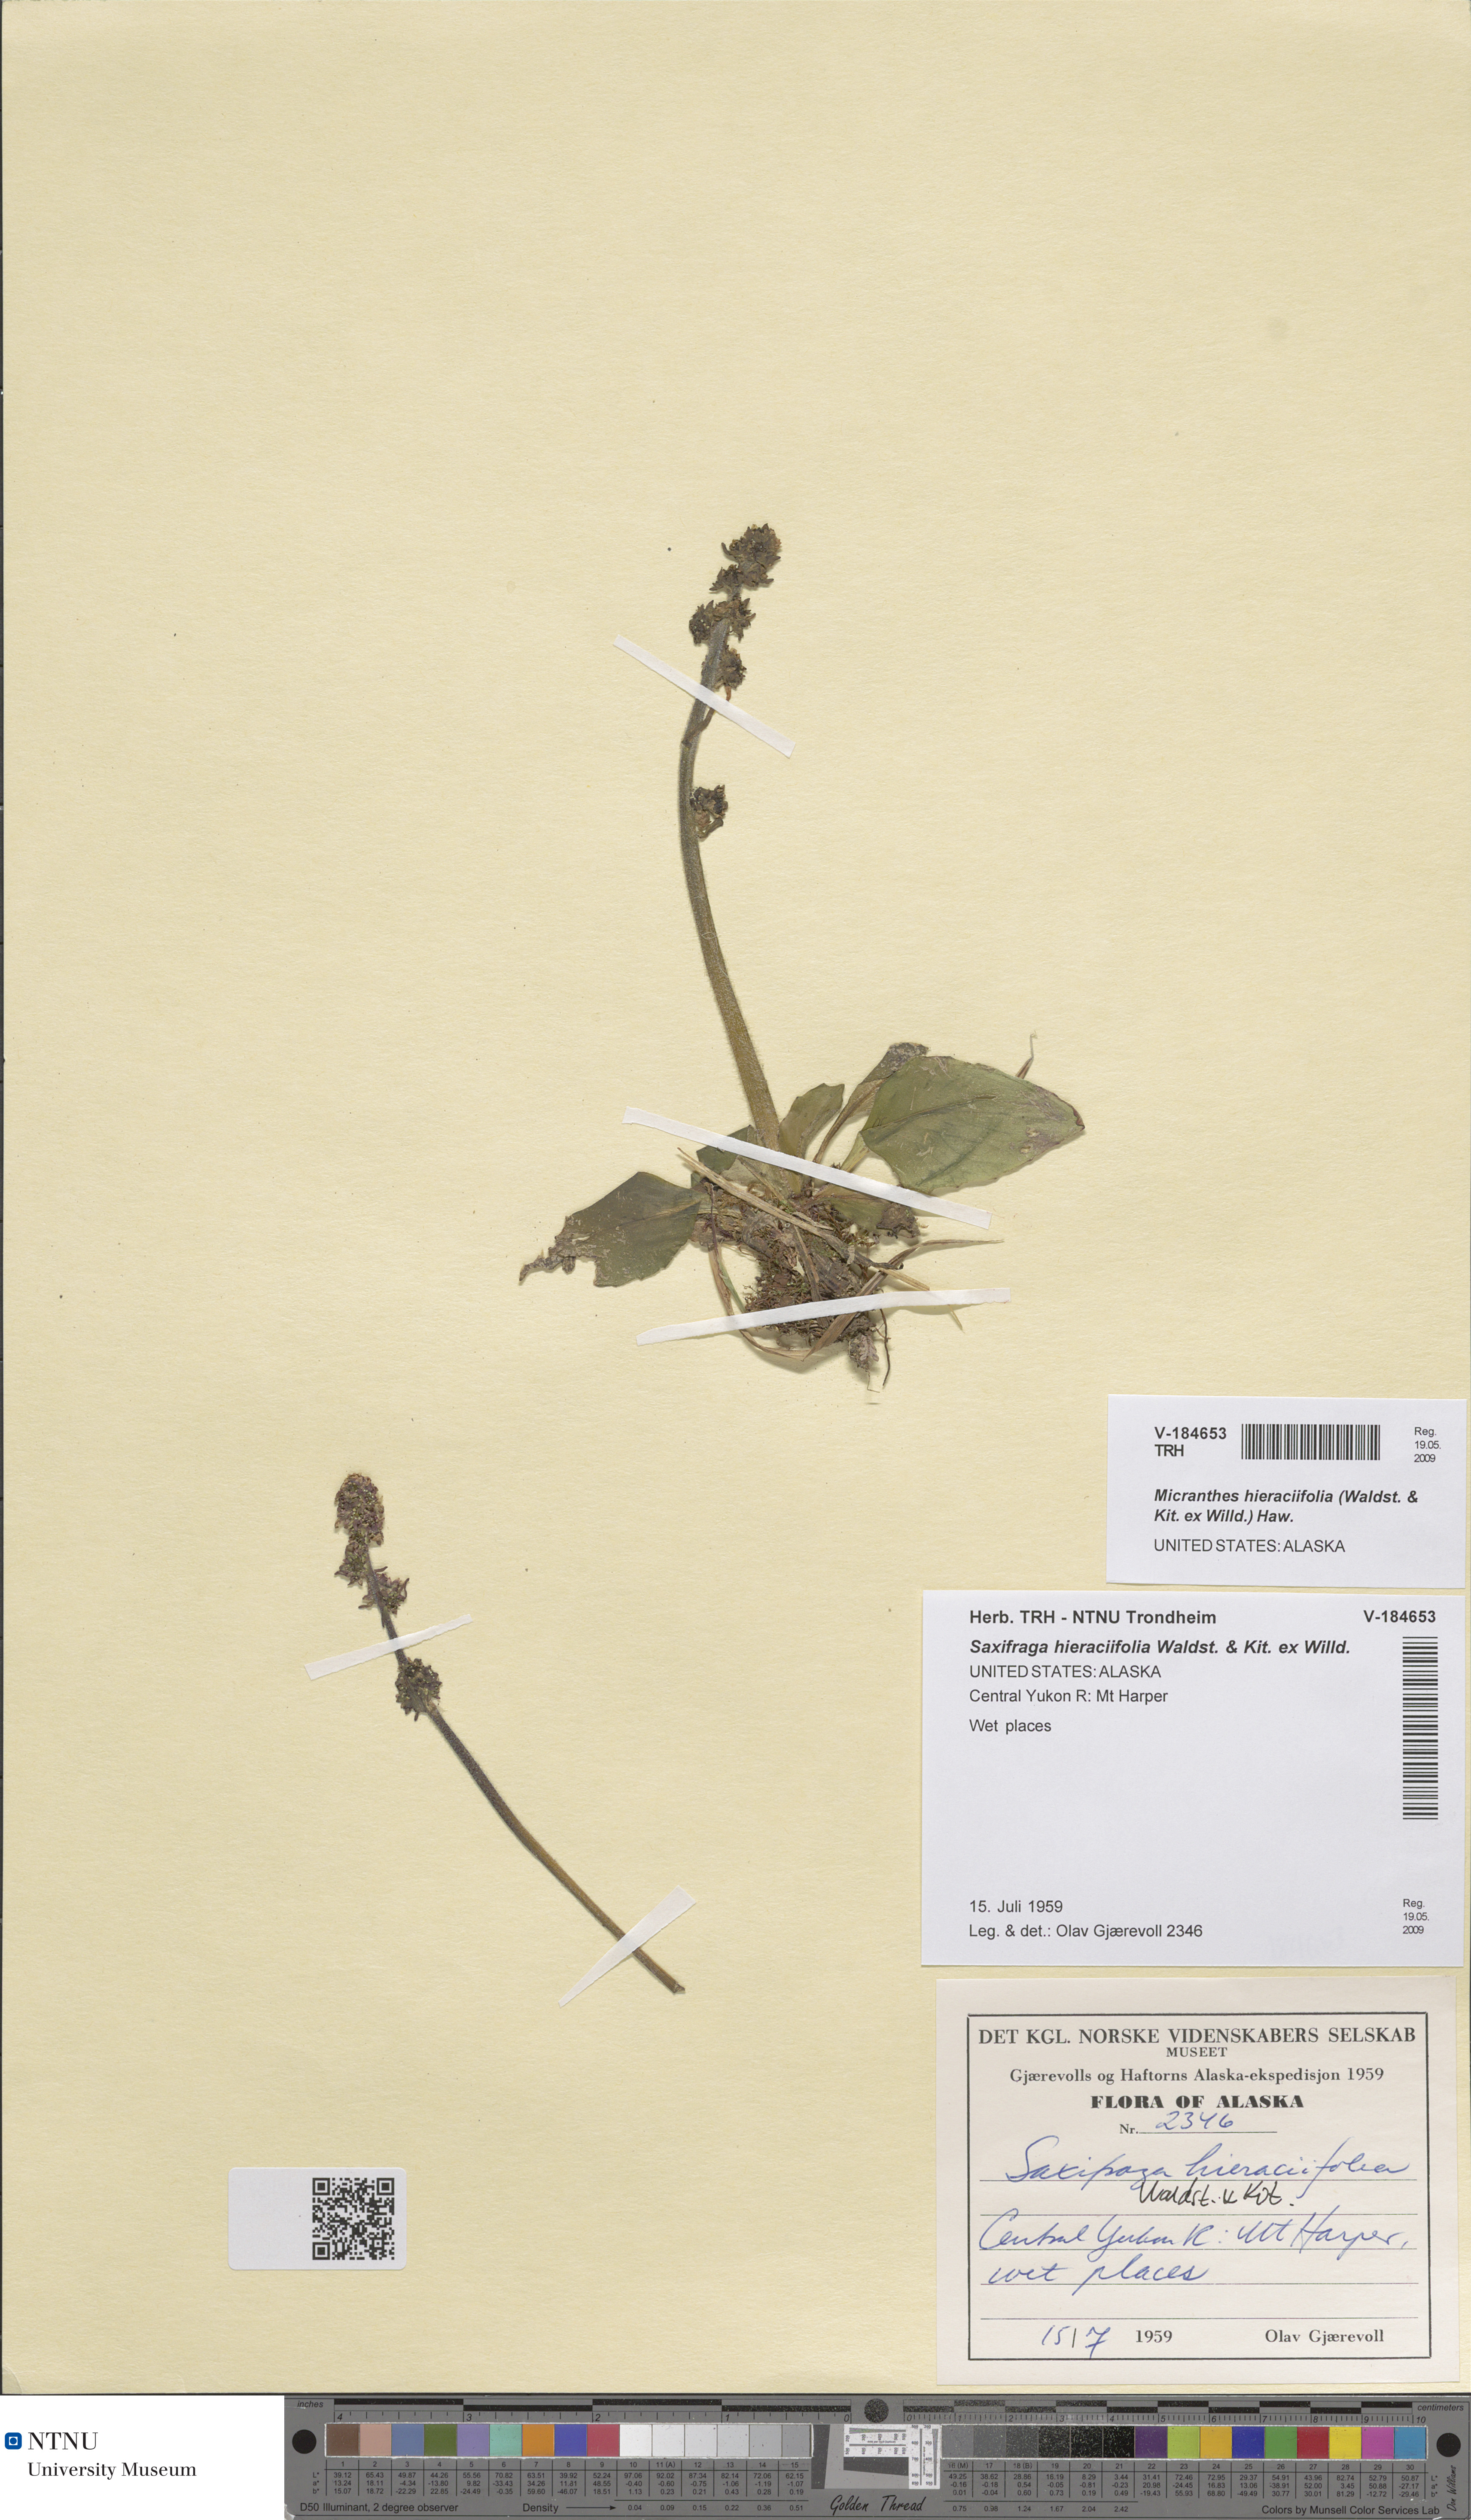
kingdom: Plantae
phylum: Tracheophyta
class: Magnoliopsida
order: Saxifragales
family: Saxifragaceae
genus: Micranthes
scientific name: Micranthes hieraciifolia
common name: Hawkweed-leaved saxifrage
